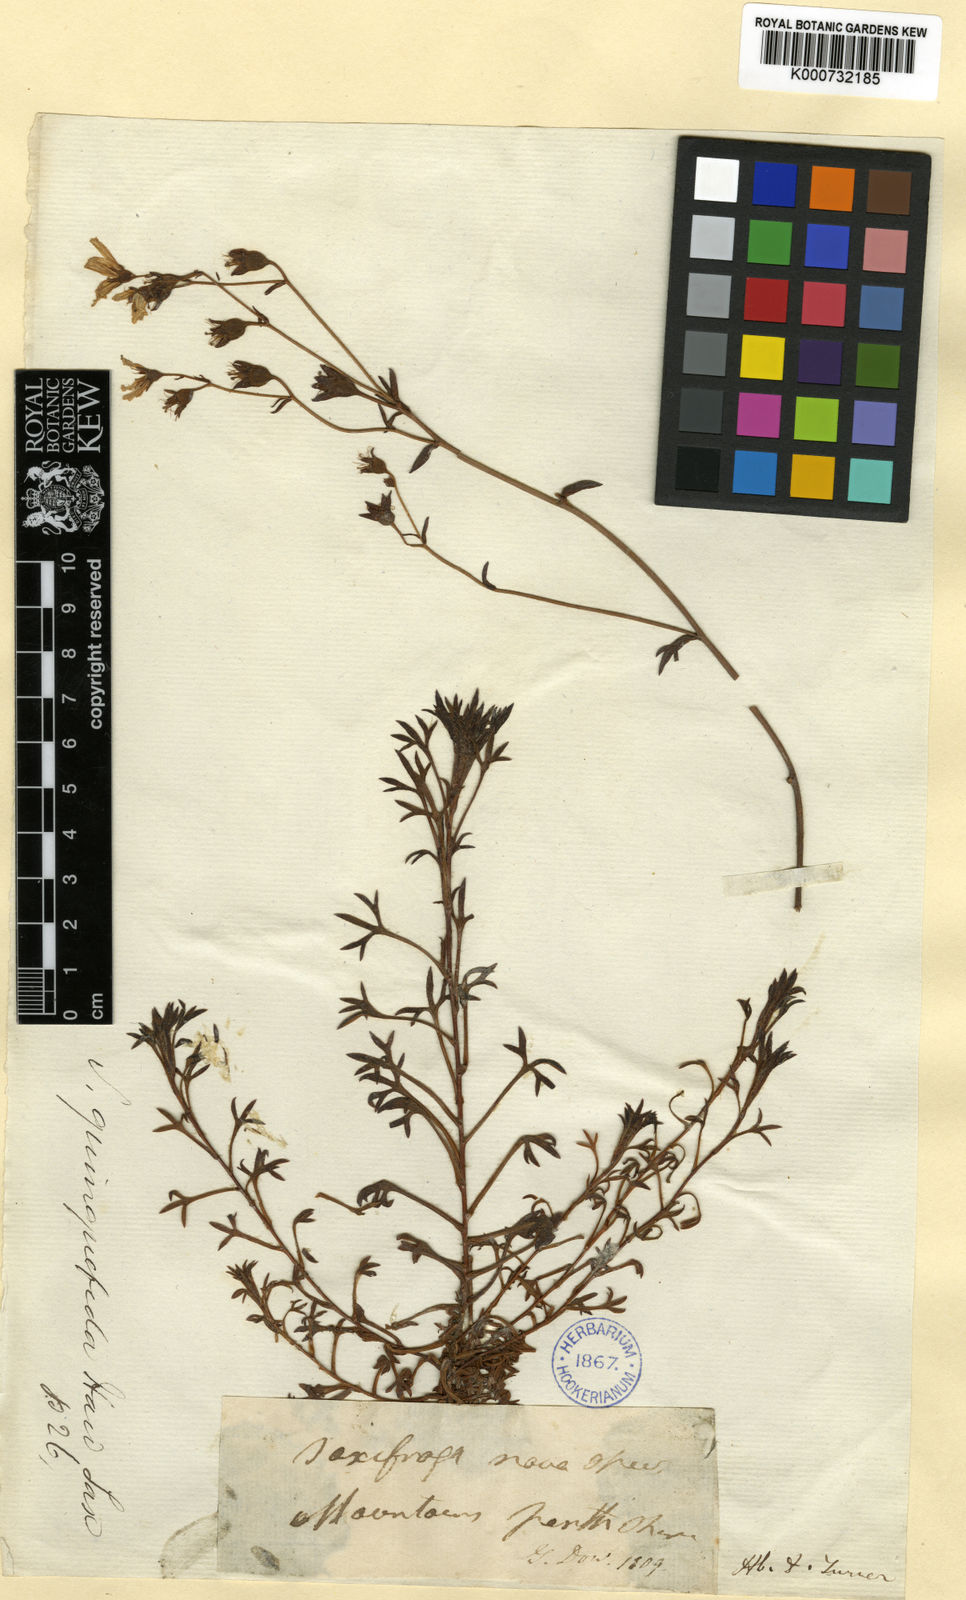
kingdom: Plantae
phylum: Tracheophyta
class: Magnoliopsida
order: Saxifragales
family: Saxifragaceae
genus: Saxifraga
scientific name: Saxifraga rosacea
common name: Irish saxifrage
